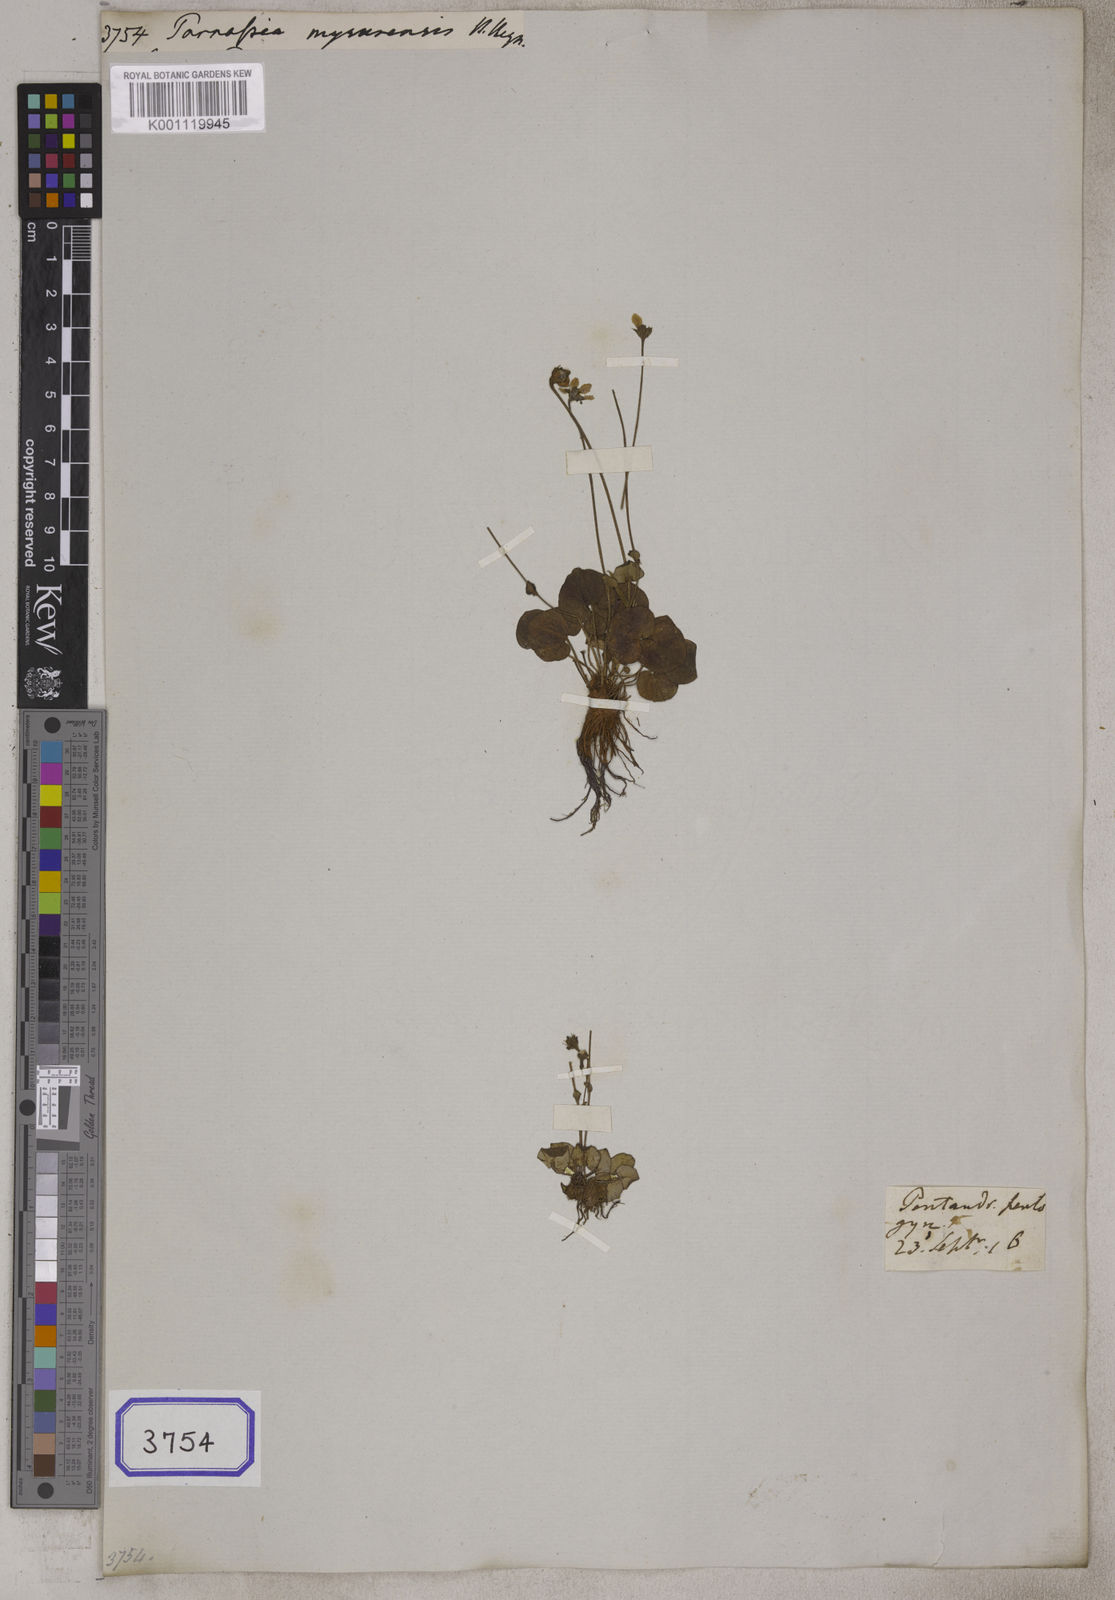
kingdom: Plantae
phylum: Tracheophyta
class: Magnoliopsida
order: Celastrales
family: Parnassiaceae
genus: Parnassia
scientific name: Parnassia
